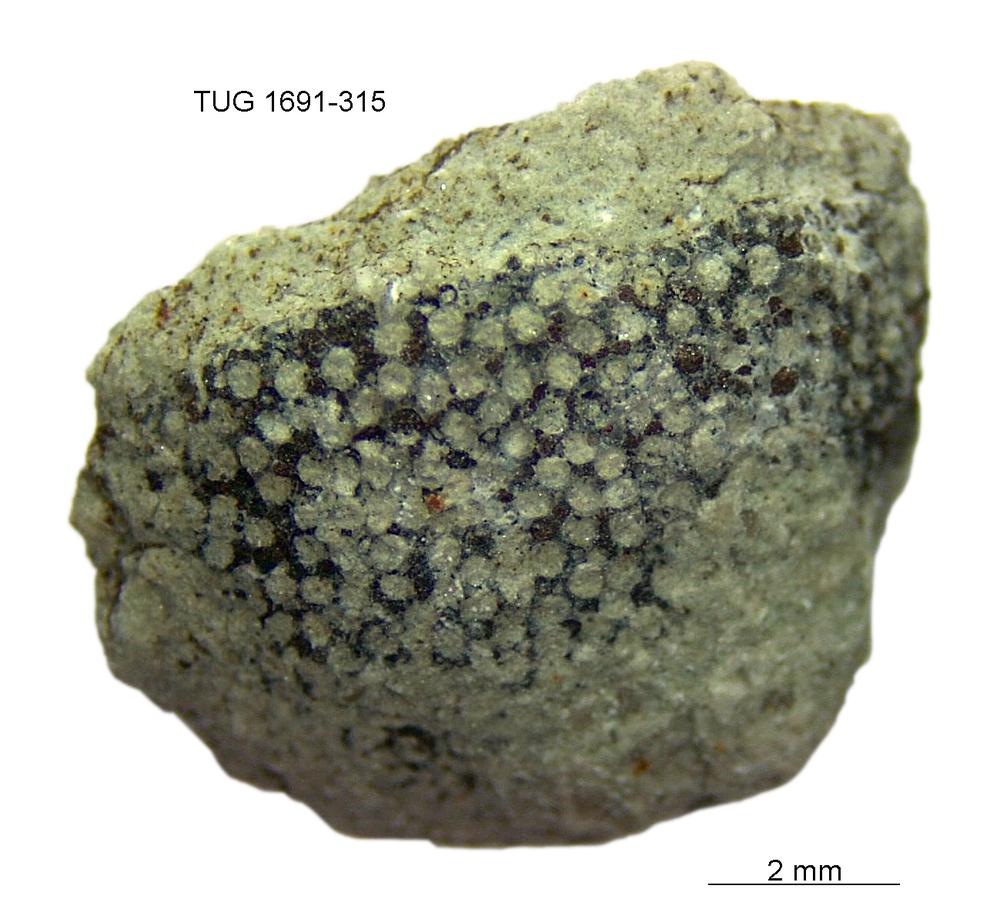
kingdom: Animalia
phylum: Bryozoa
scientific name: Bryozoa
